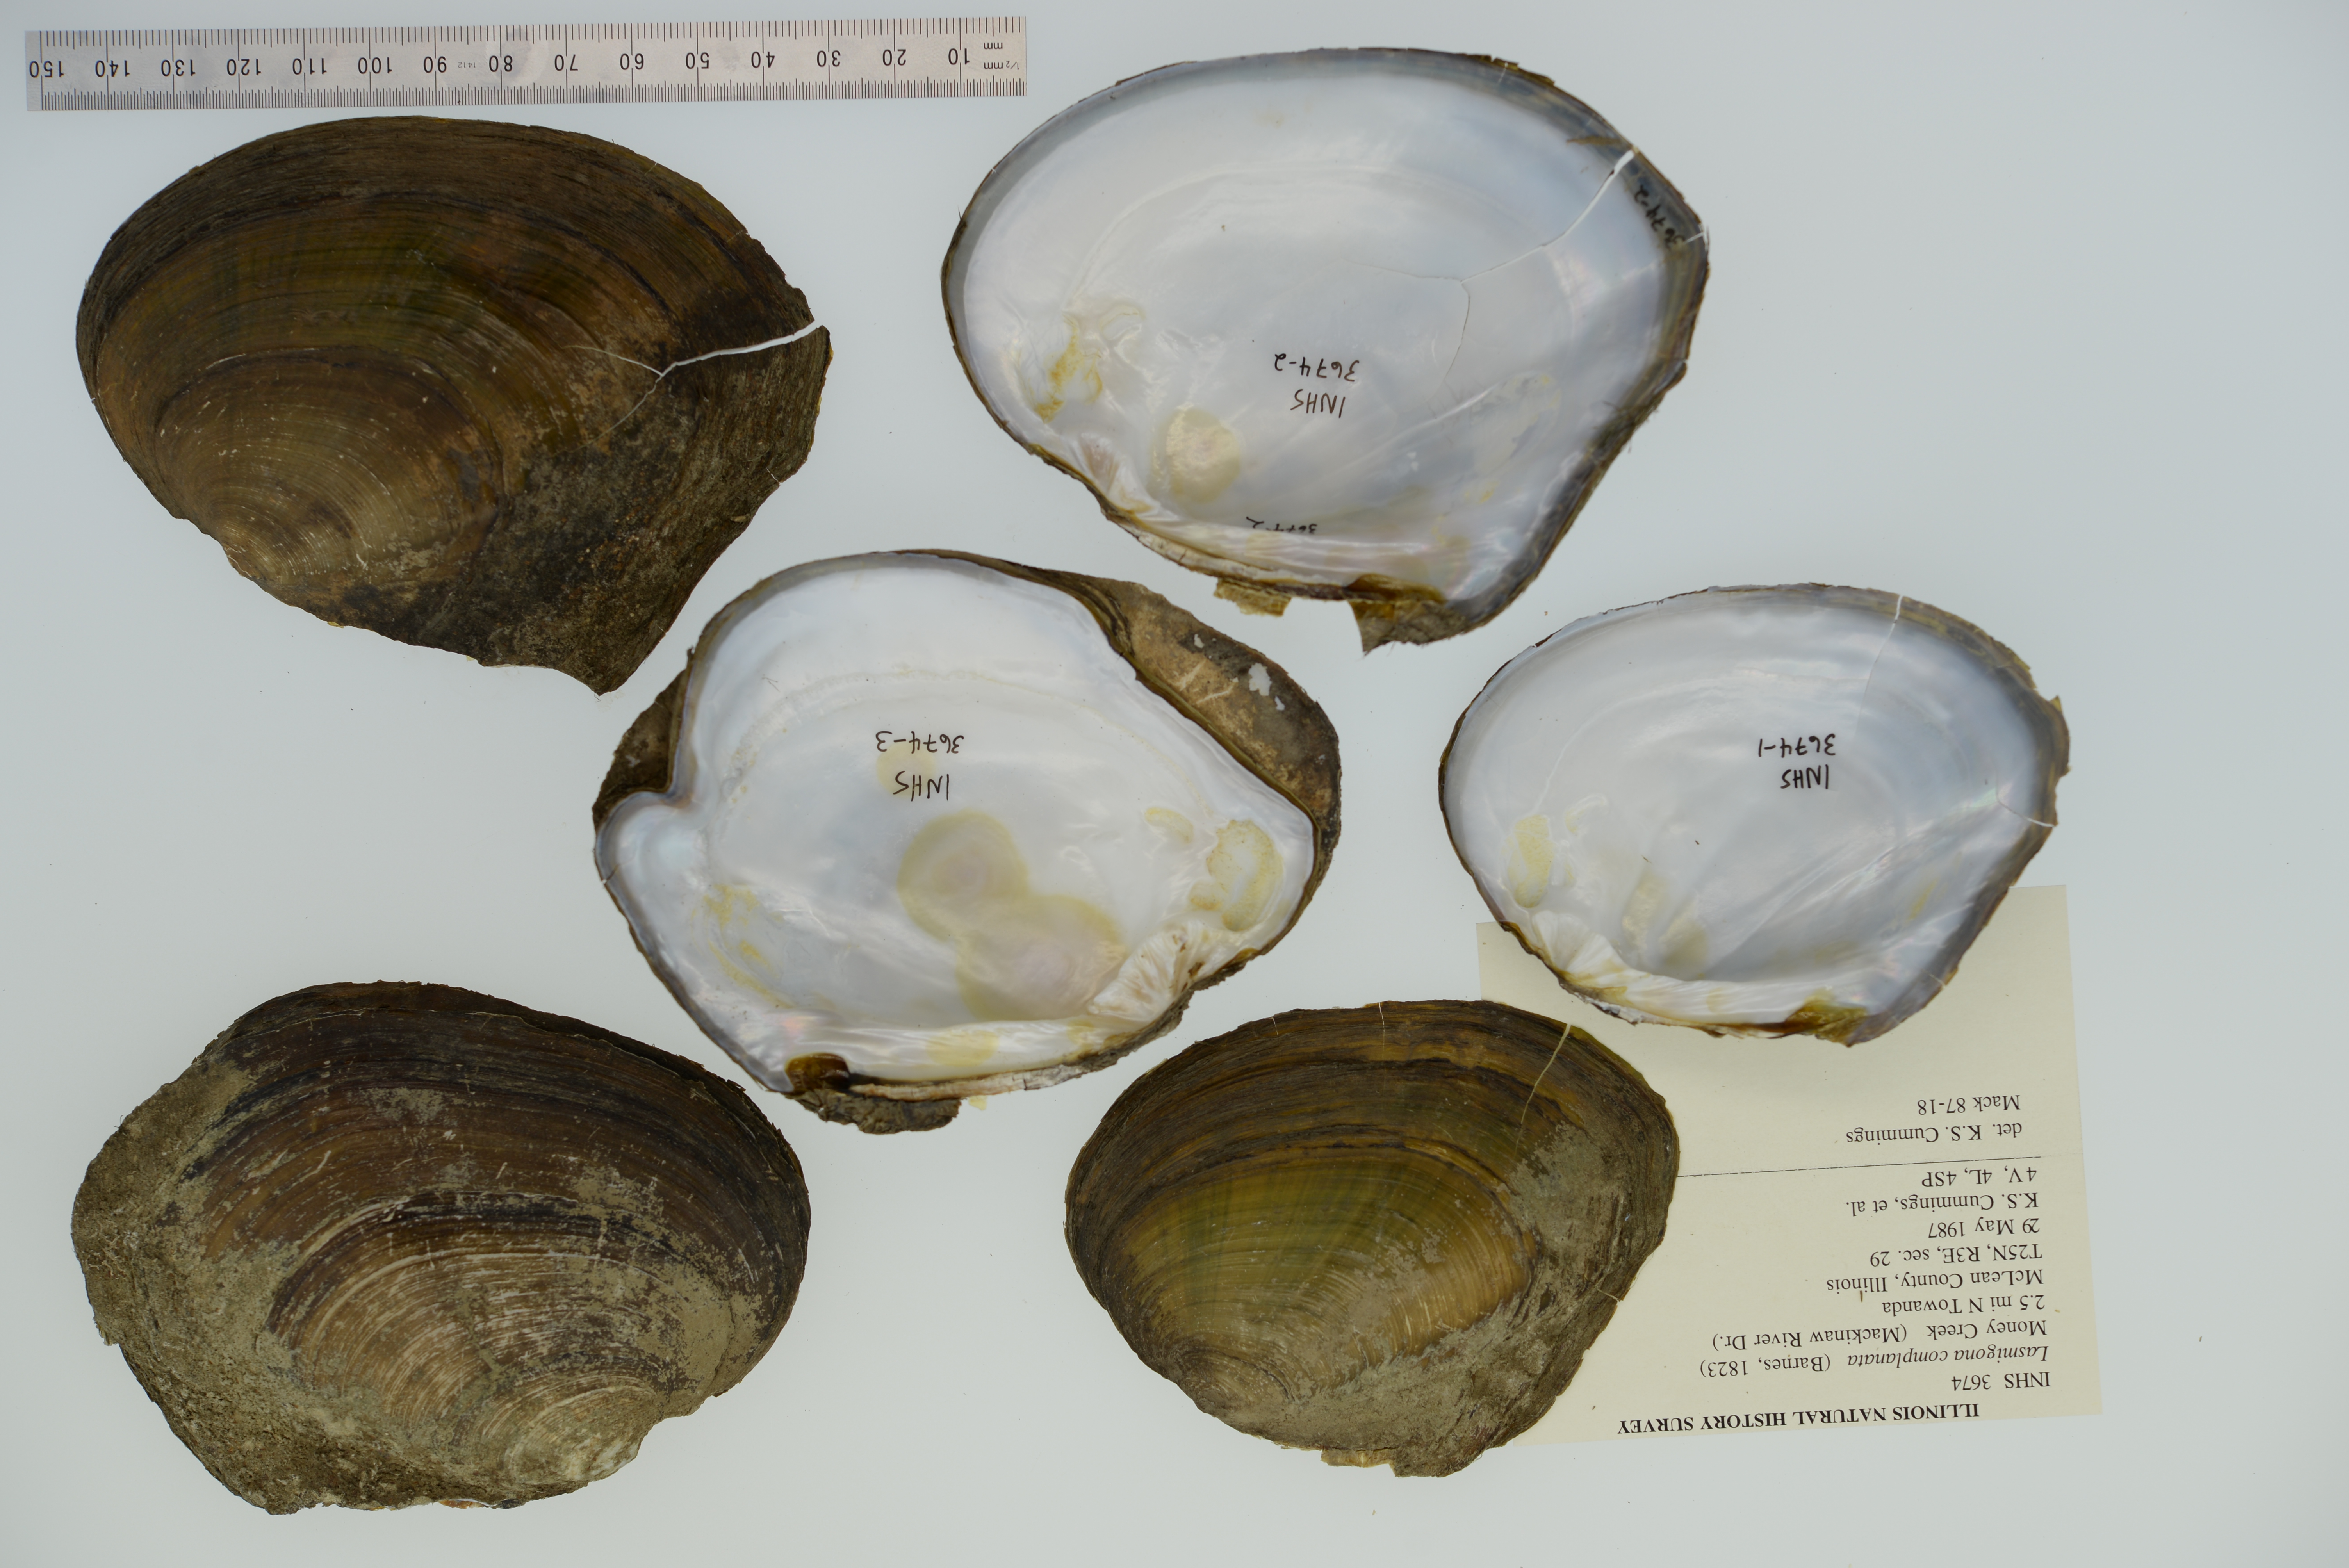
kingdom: Animalia
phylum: Mollusca
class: Bivalvia
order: Unionida
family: Unionidae
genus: Lasmigona
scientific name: Lasmigona complanata
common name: White heelsplitter
